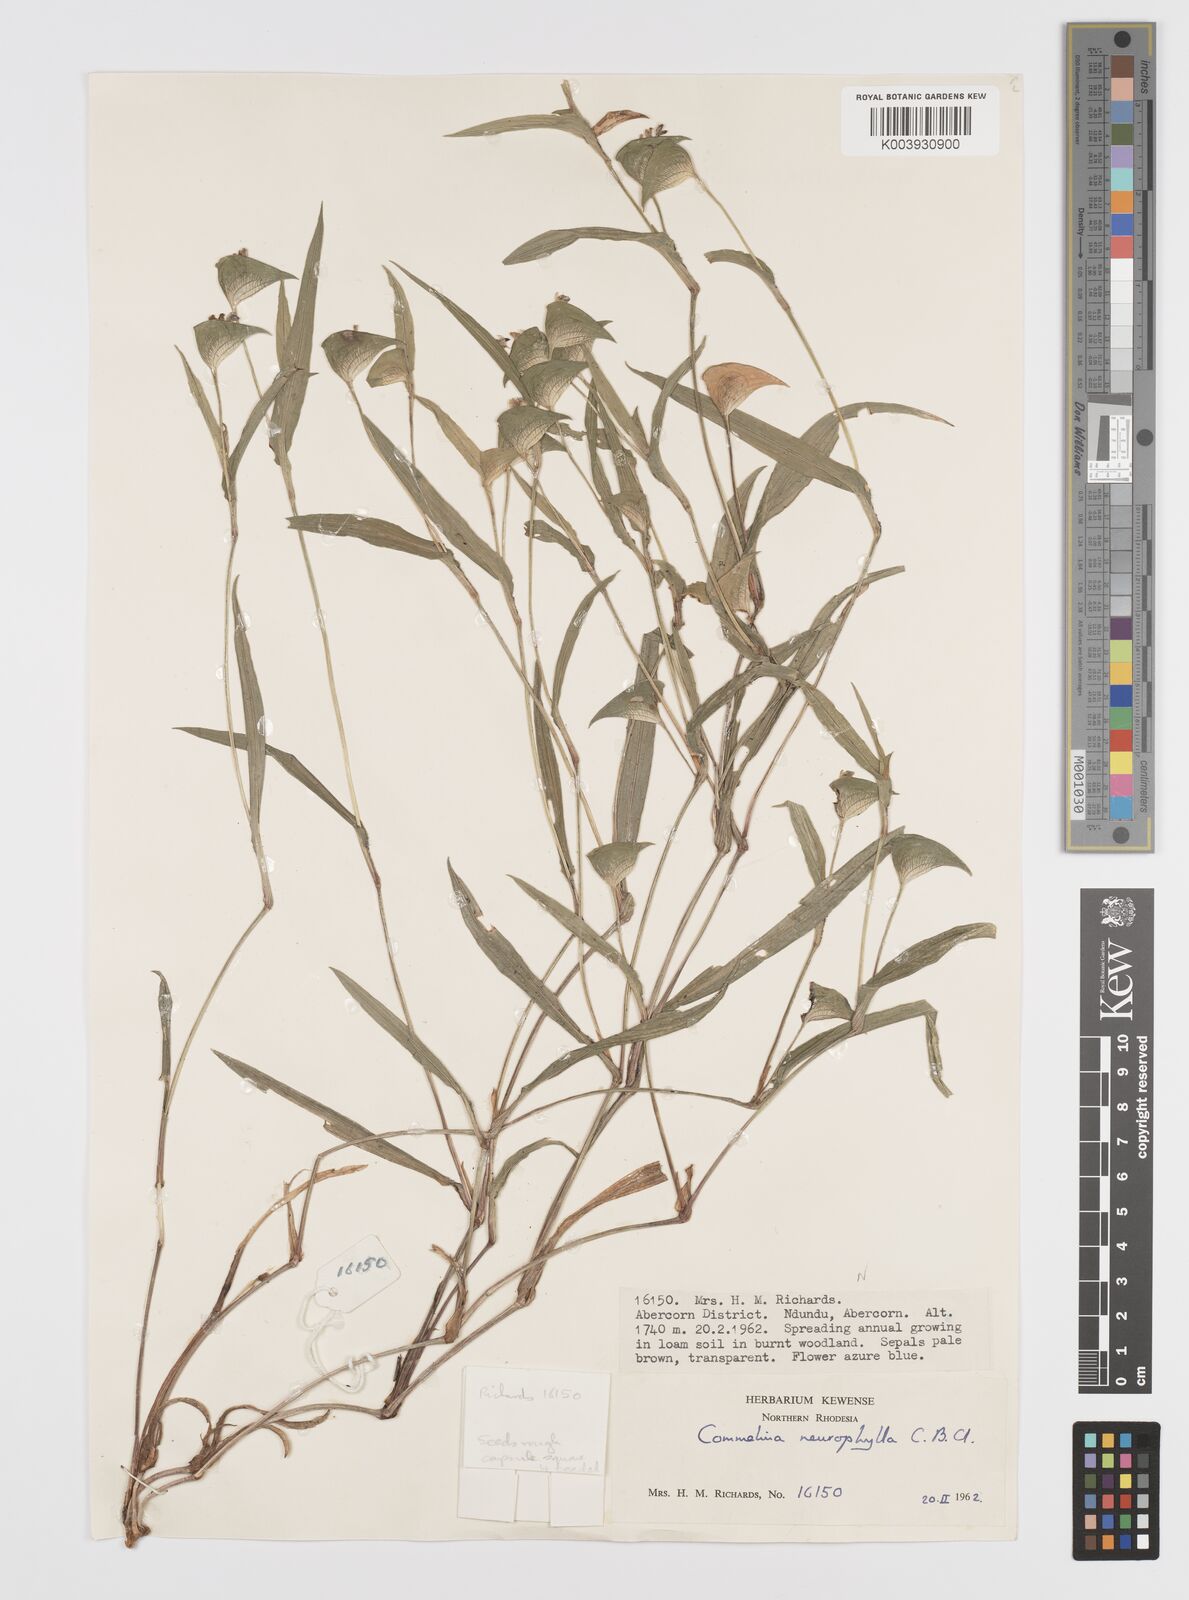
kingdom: Plantae
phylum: Tracheophyta
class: Liliopsida
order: Commelinales
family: Commelinaceae
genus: Commelina
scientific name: Commelina neurophylla
